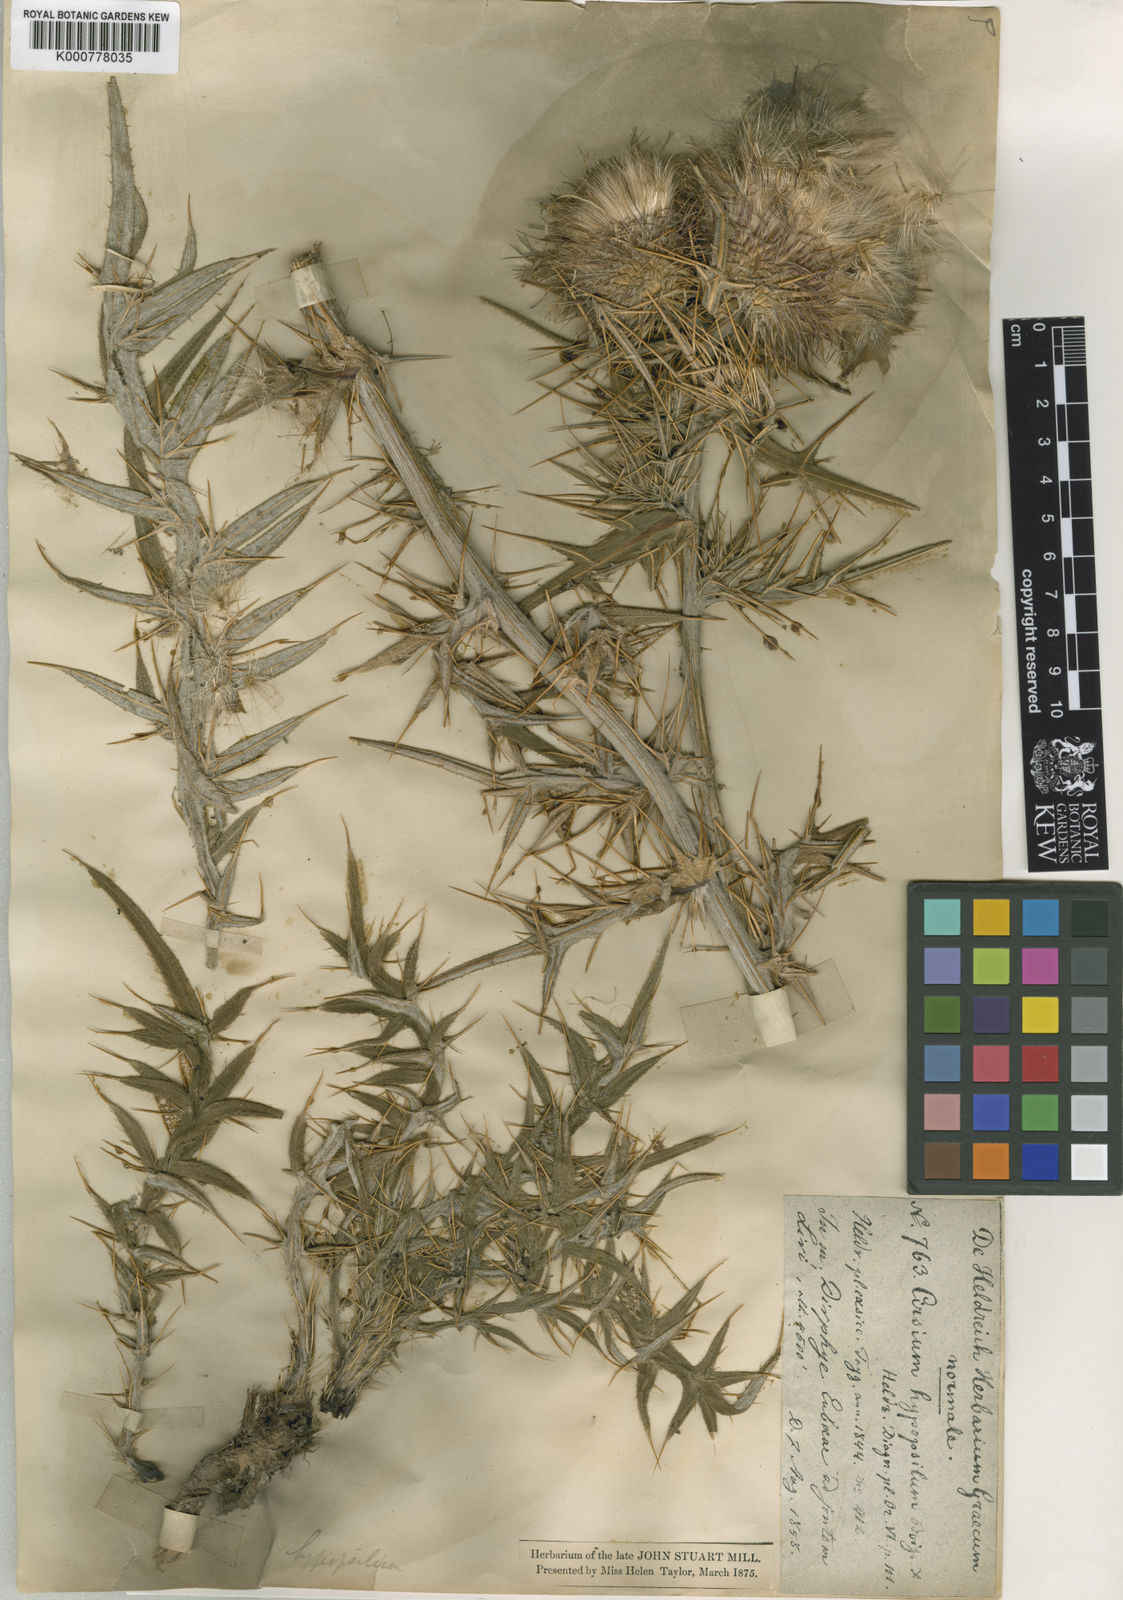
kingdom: Plantae
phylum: Tracheophyta
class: Magnoliopsida
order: Asterales
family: Asteraceae
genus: Lophiolepis
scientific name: Lophiolepis hypopsila
